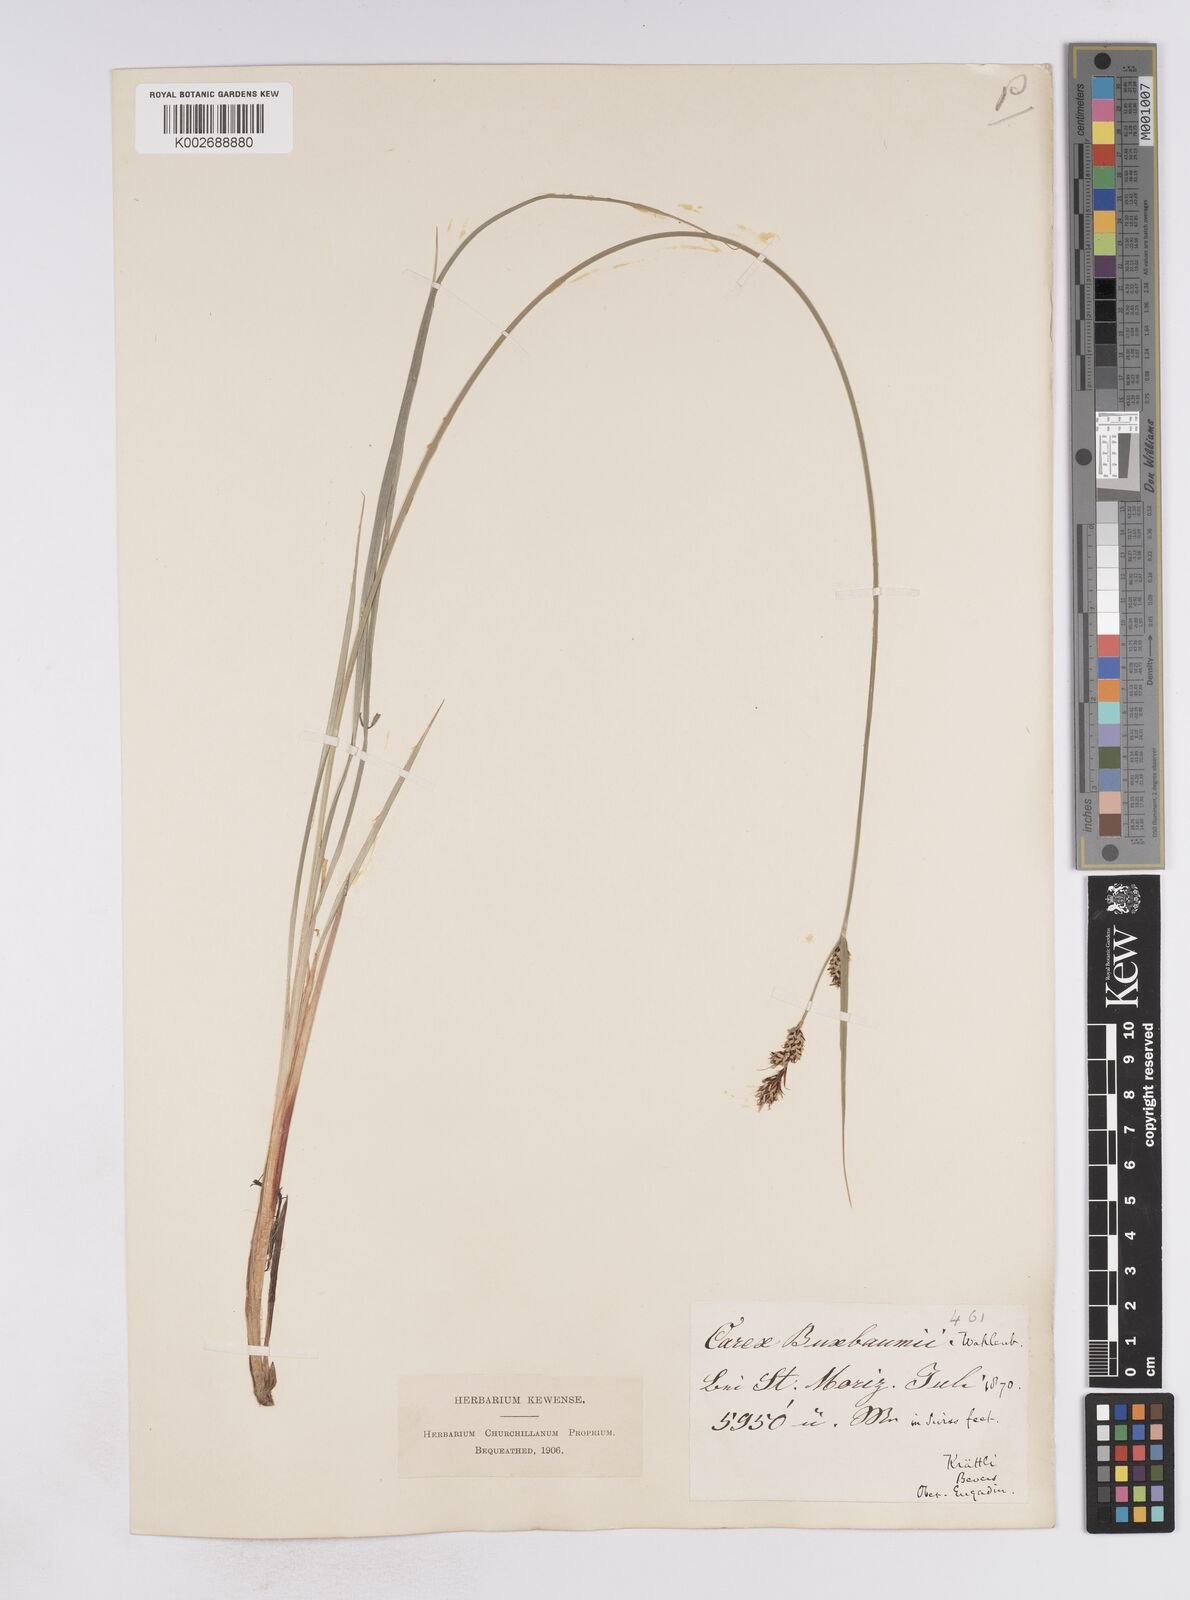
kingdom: Plantae
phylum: Tracheophyta
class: Liliopsida
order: Poales
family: Cyperaceae
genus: Carex
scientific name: Carex buxbaumii
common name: Club sedge
